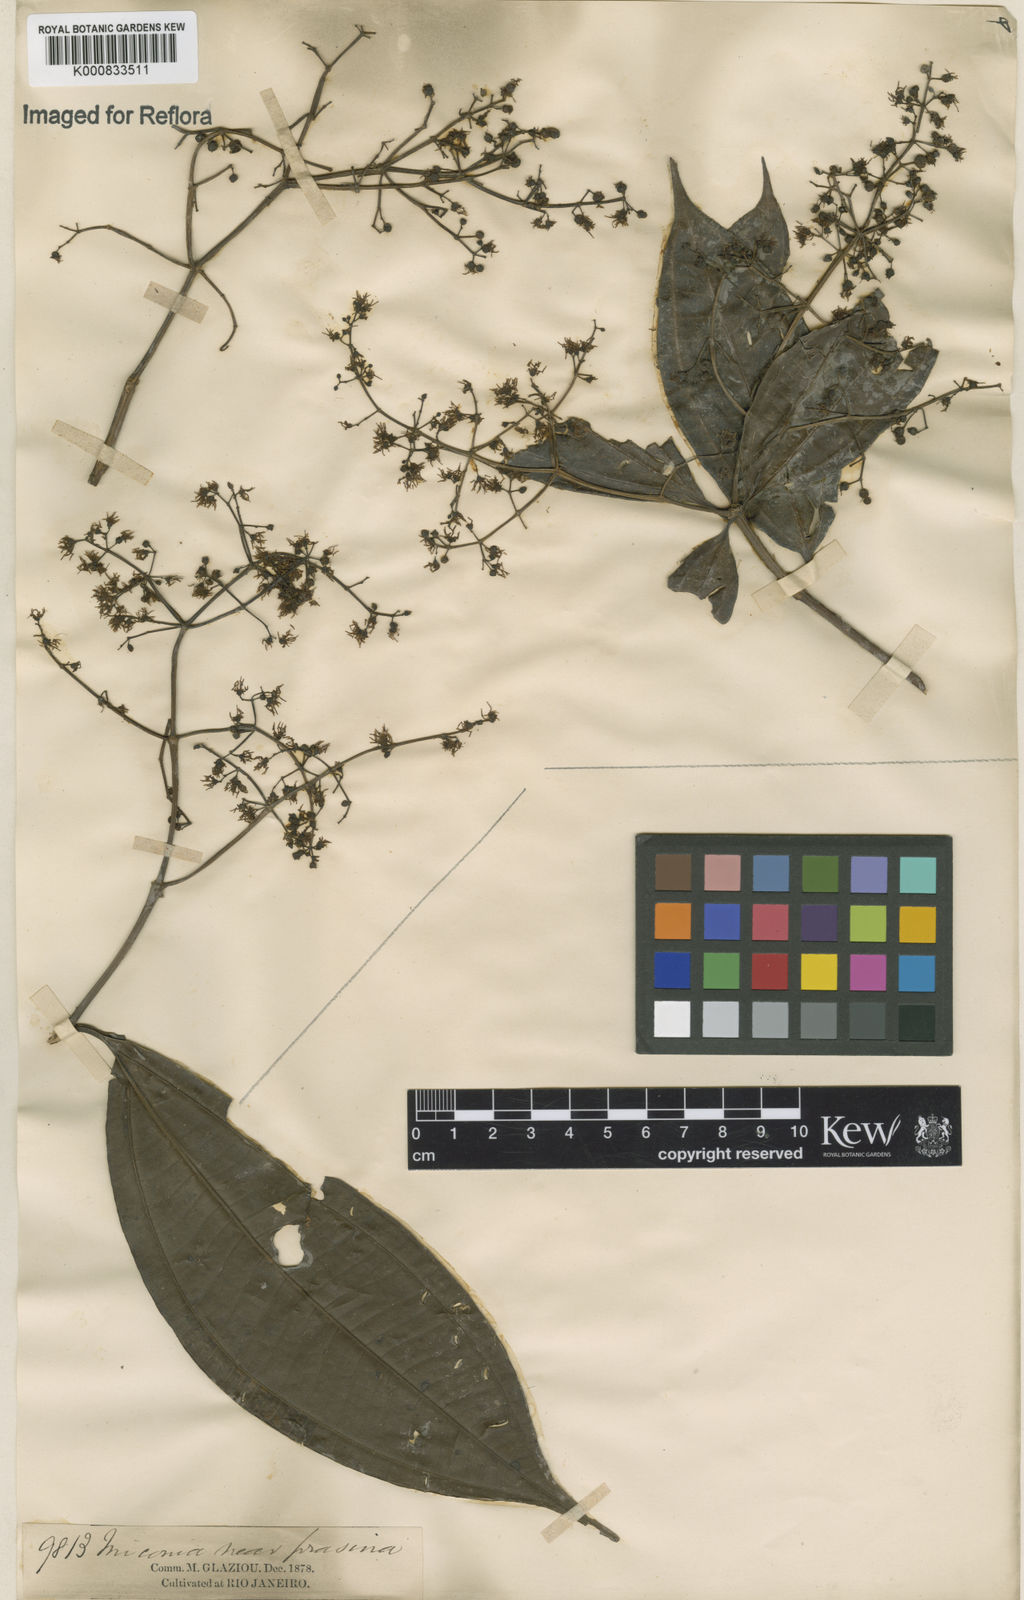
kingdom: Plantae
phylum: Tracheophyta
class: Magnoliopsida
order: Myrtales
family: Melastomataceae
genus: Miconia
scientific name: Miconia prasina
